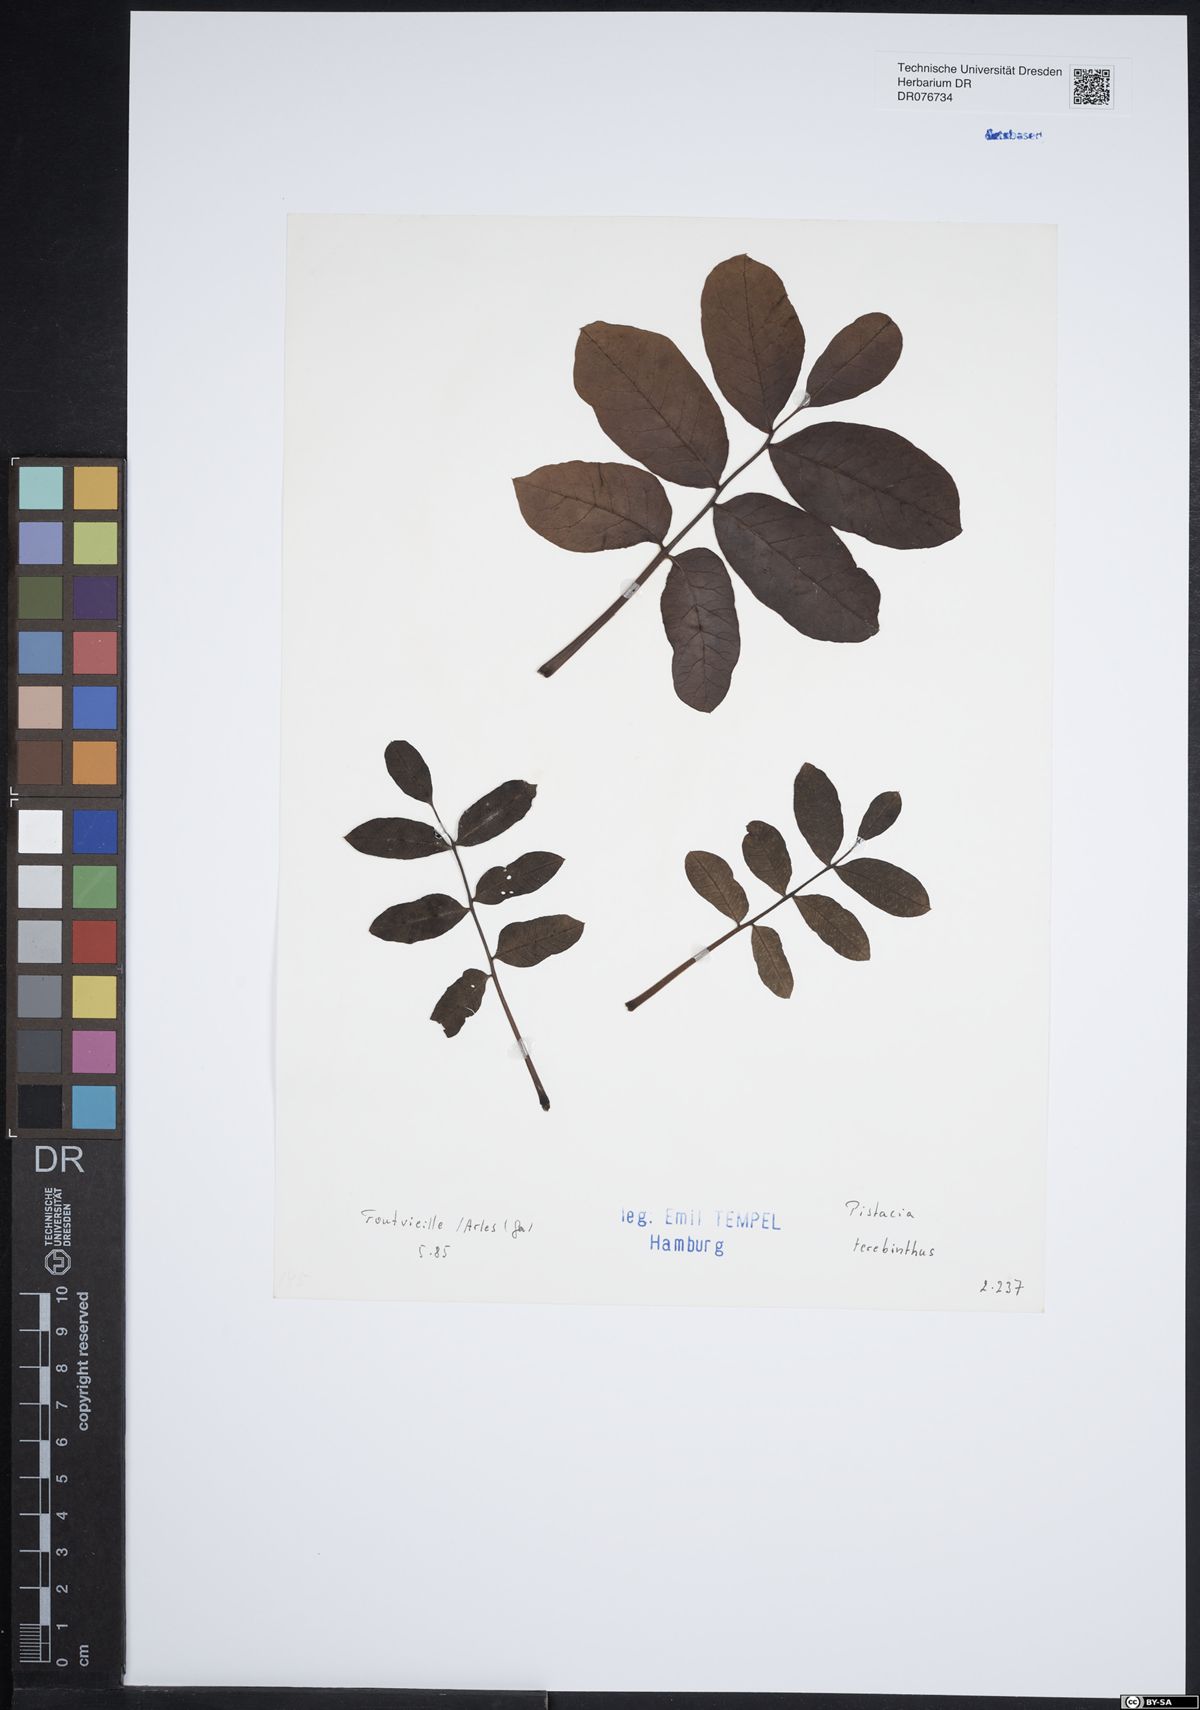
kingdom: Plantae
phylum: Tracheophyta
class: Magnoliopsida
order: Sapindales
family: Anacardiaceae
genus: Pistacia
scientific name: Pistacia terebinthus
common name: Terebinth
